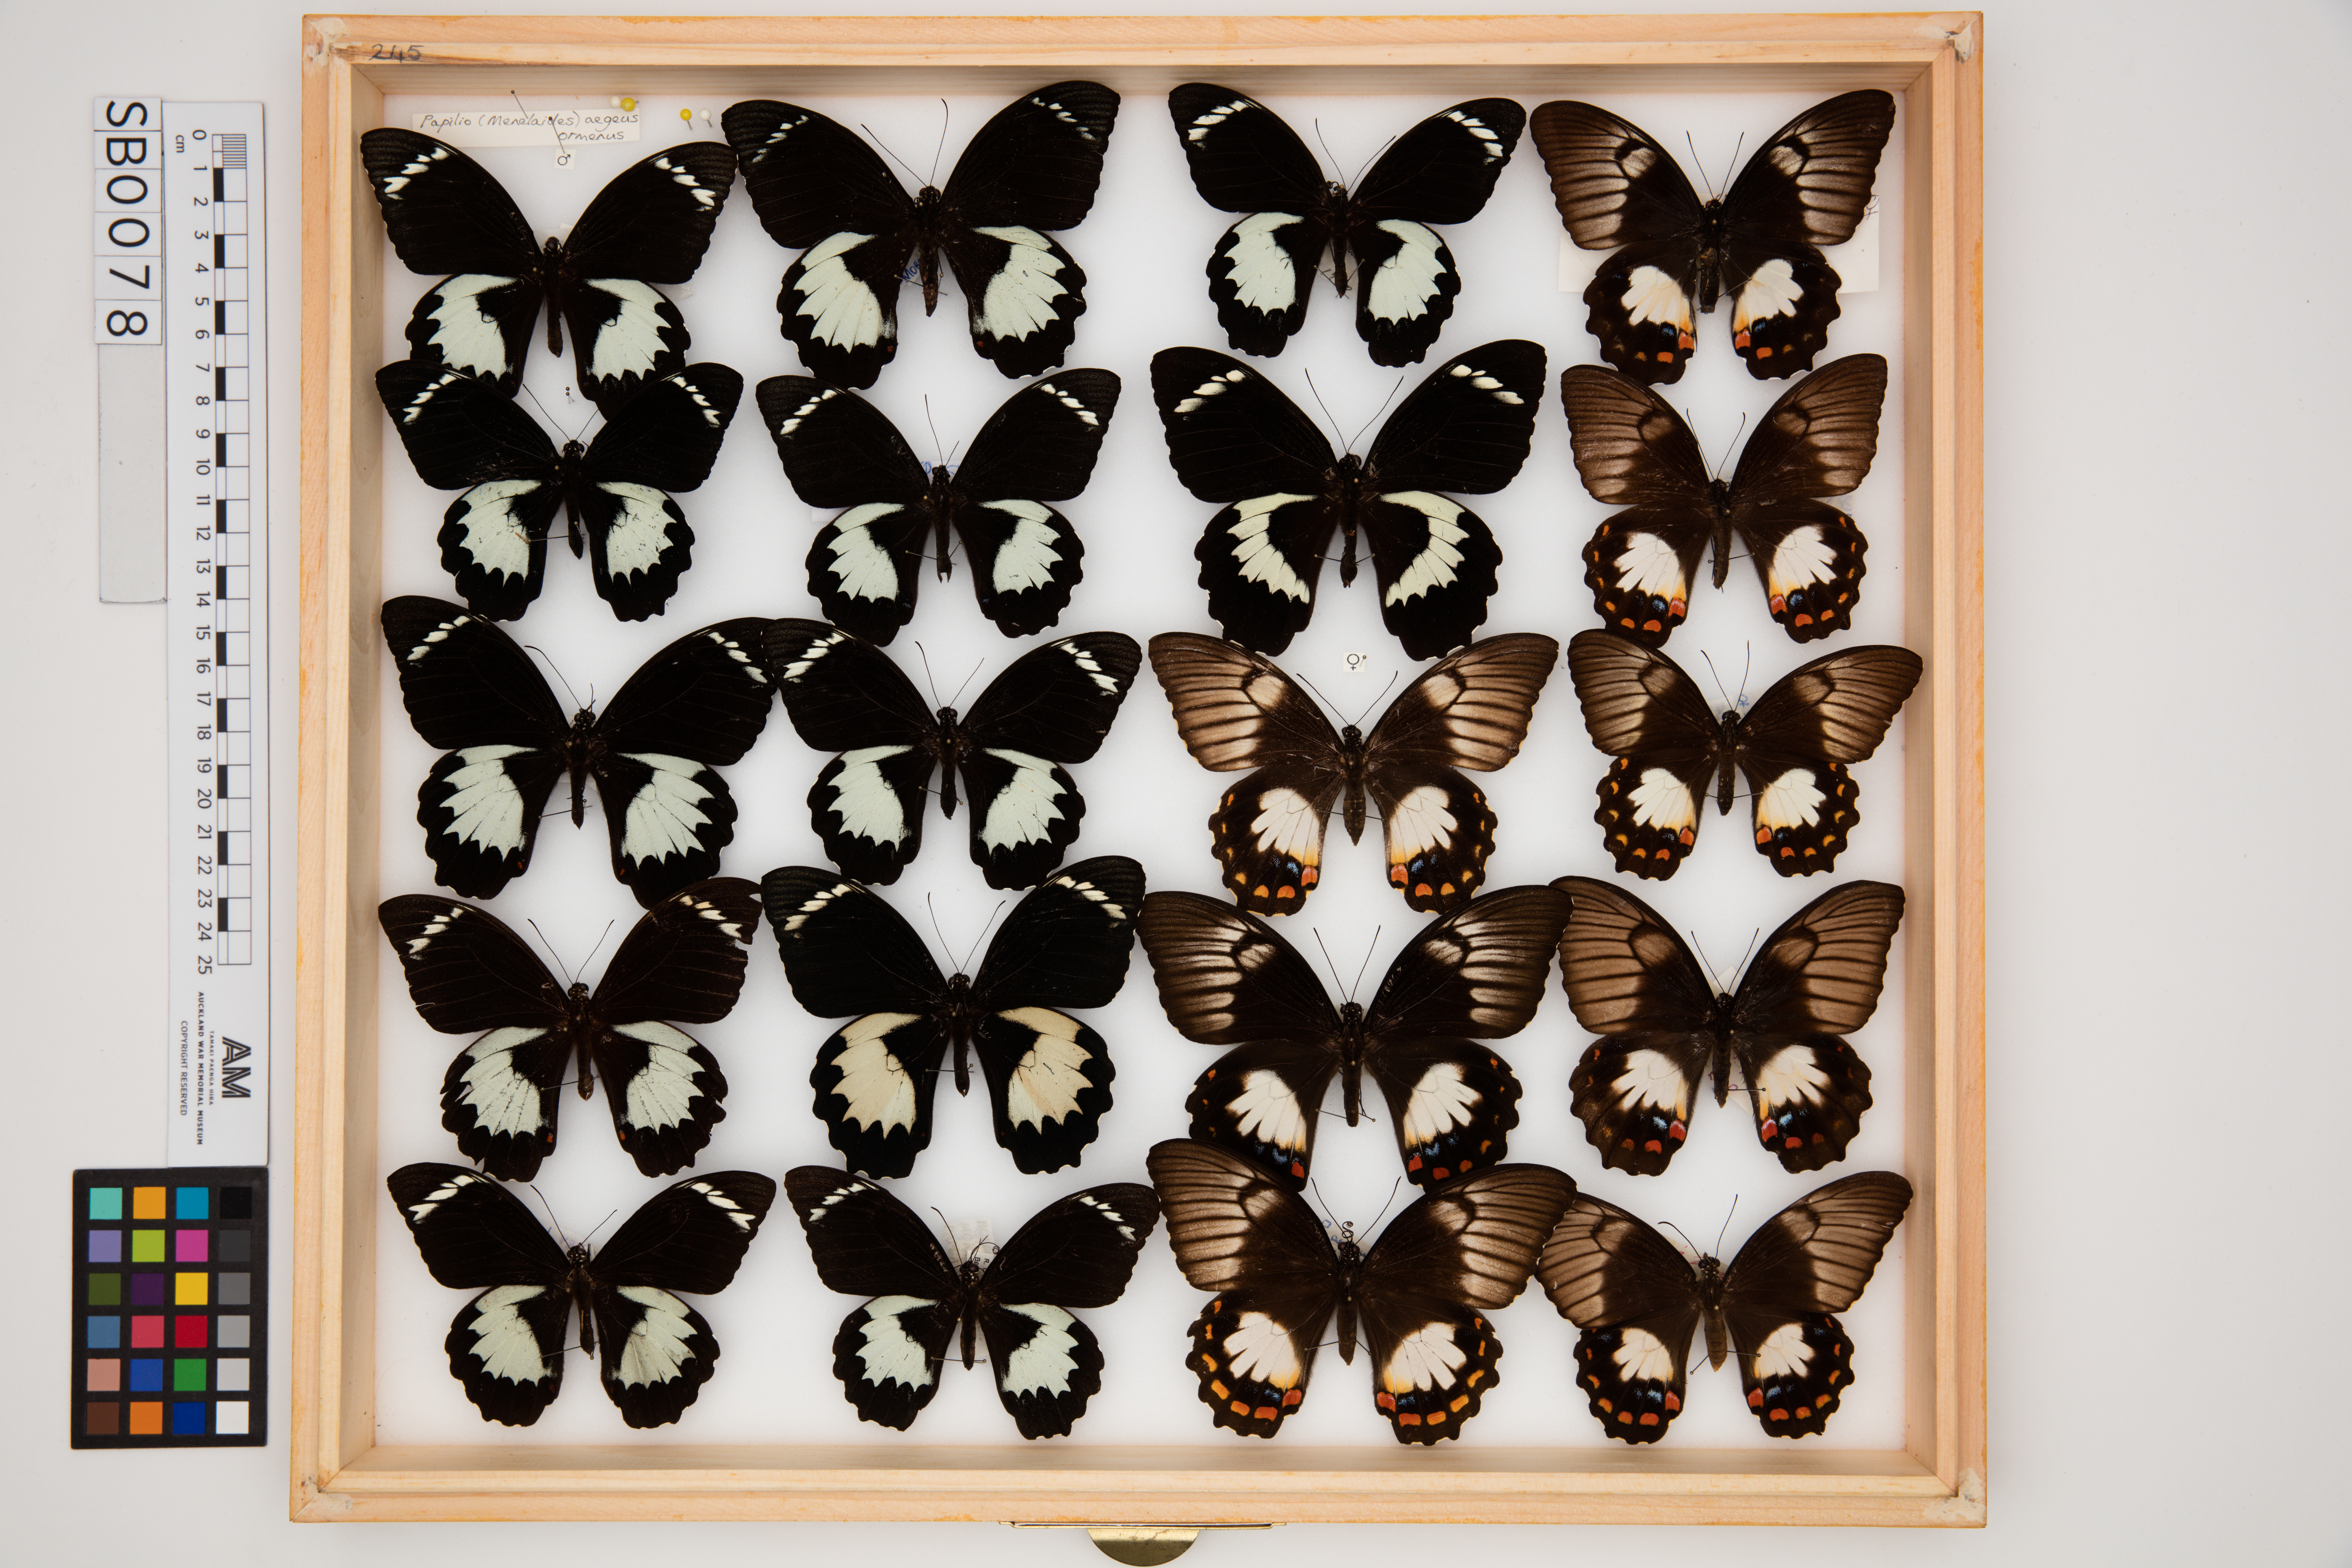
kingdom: Animalia
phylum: Arthropoda
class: Insecta
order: Lepidoptera
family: Papilionidae
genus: Papilio
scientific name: Papilio aegeus
